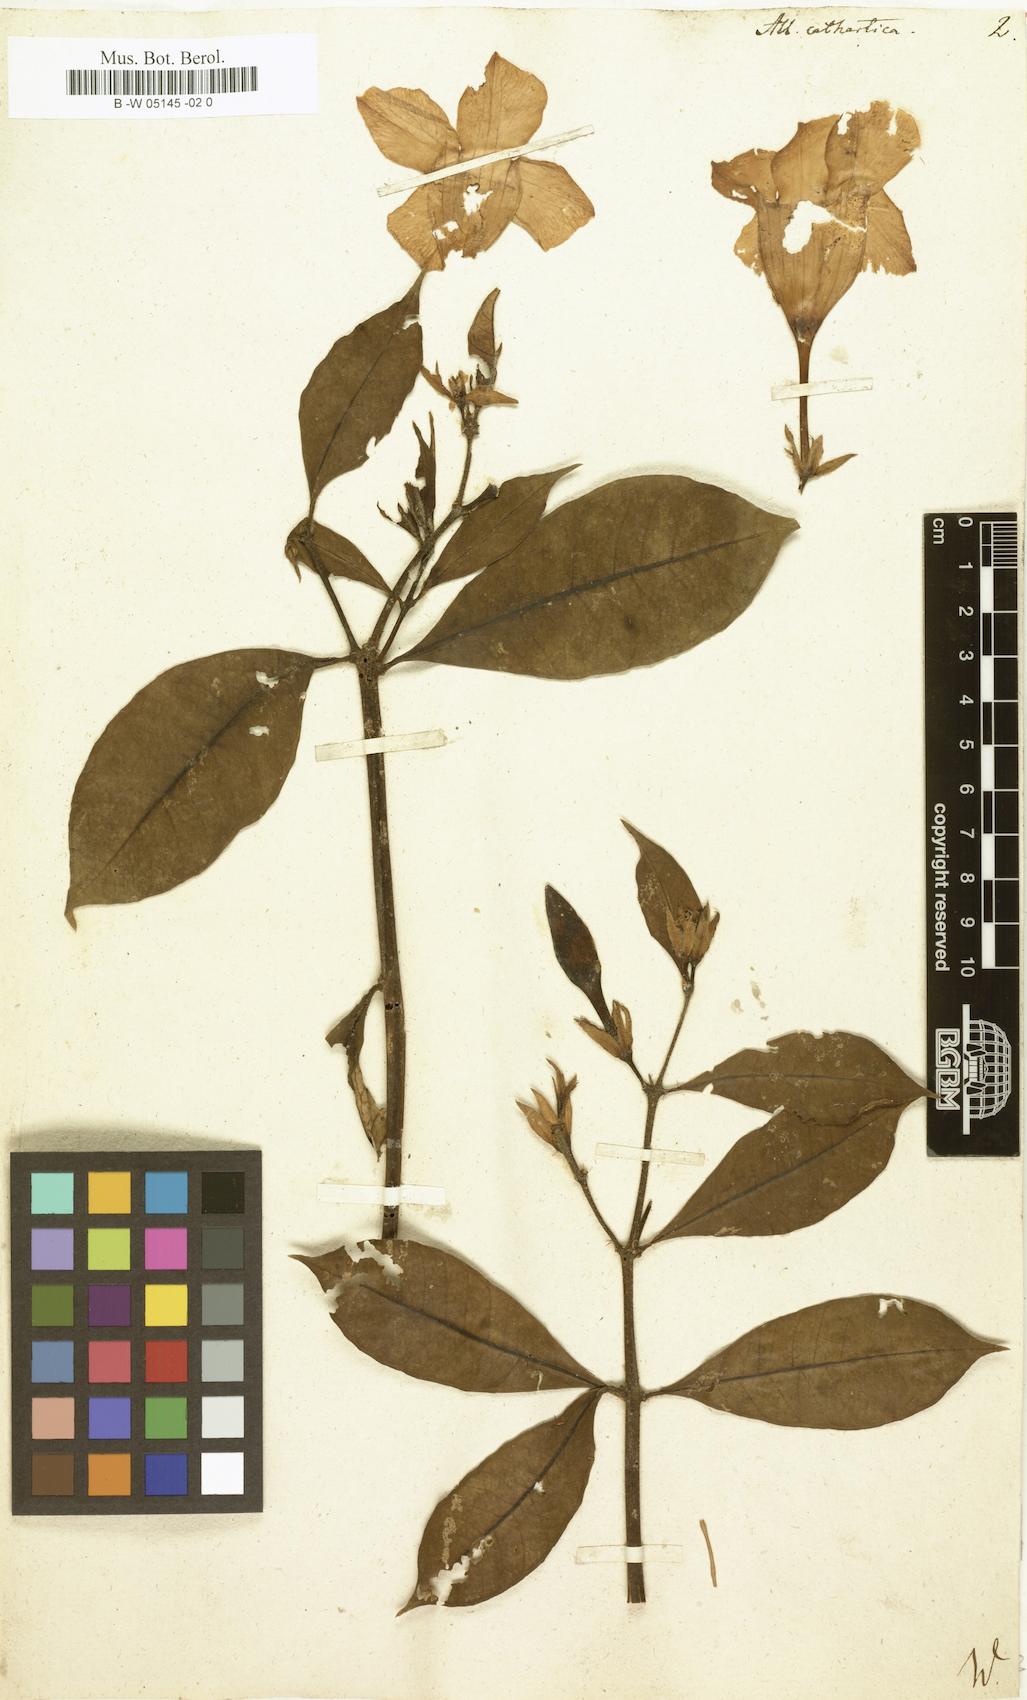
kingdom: Plantae
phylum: Tracheophyta
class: Magnoliopsida
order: Gentianales
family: Apocynaceae
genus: Allamanda
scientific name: Allamanda cathartica
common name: Golden trumpet
